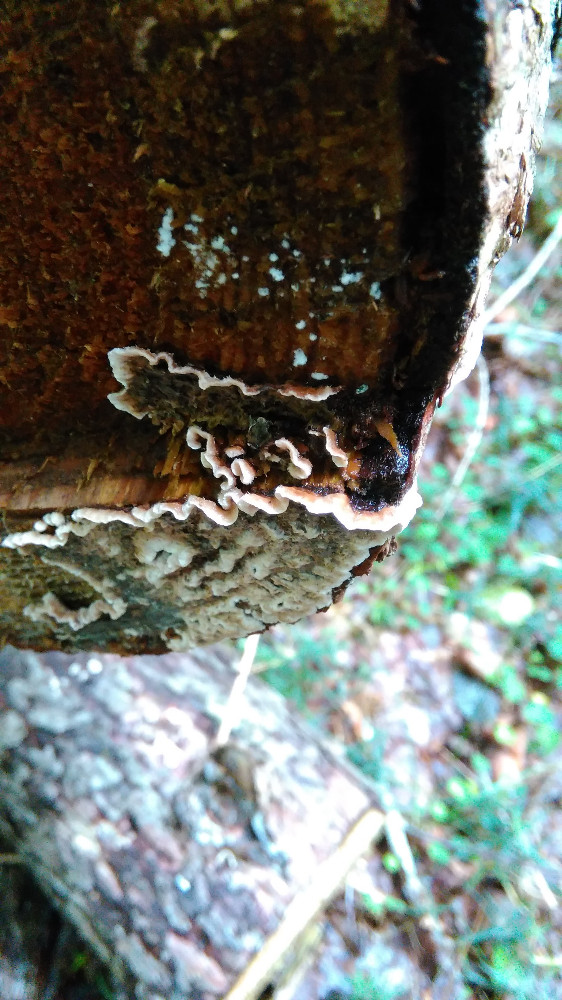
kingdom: Fungi
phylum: Basidiomycota
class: Agaricomycetes
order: Russulales
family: Stereaceae
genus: Stereum
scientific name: Stereum sanguinolentum
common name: blødende lædersvamp
